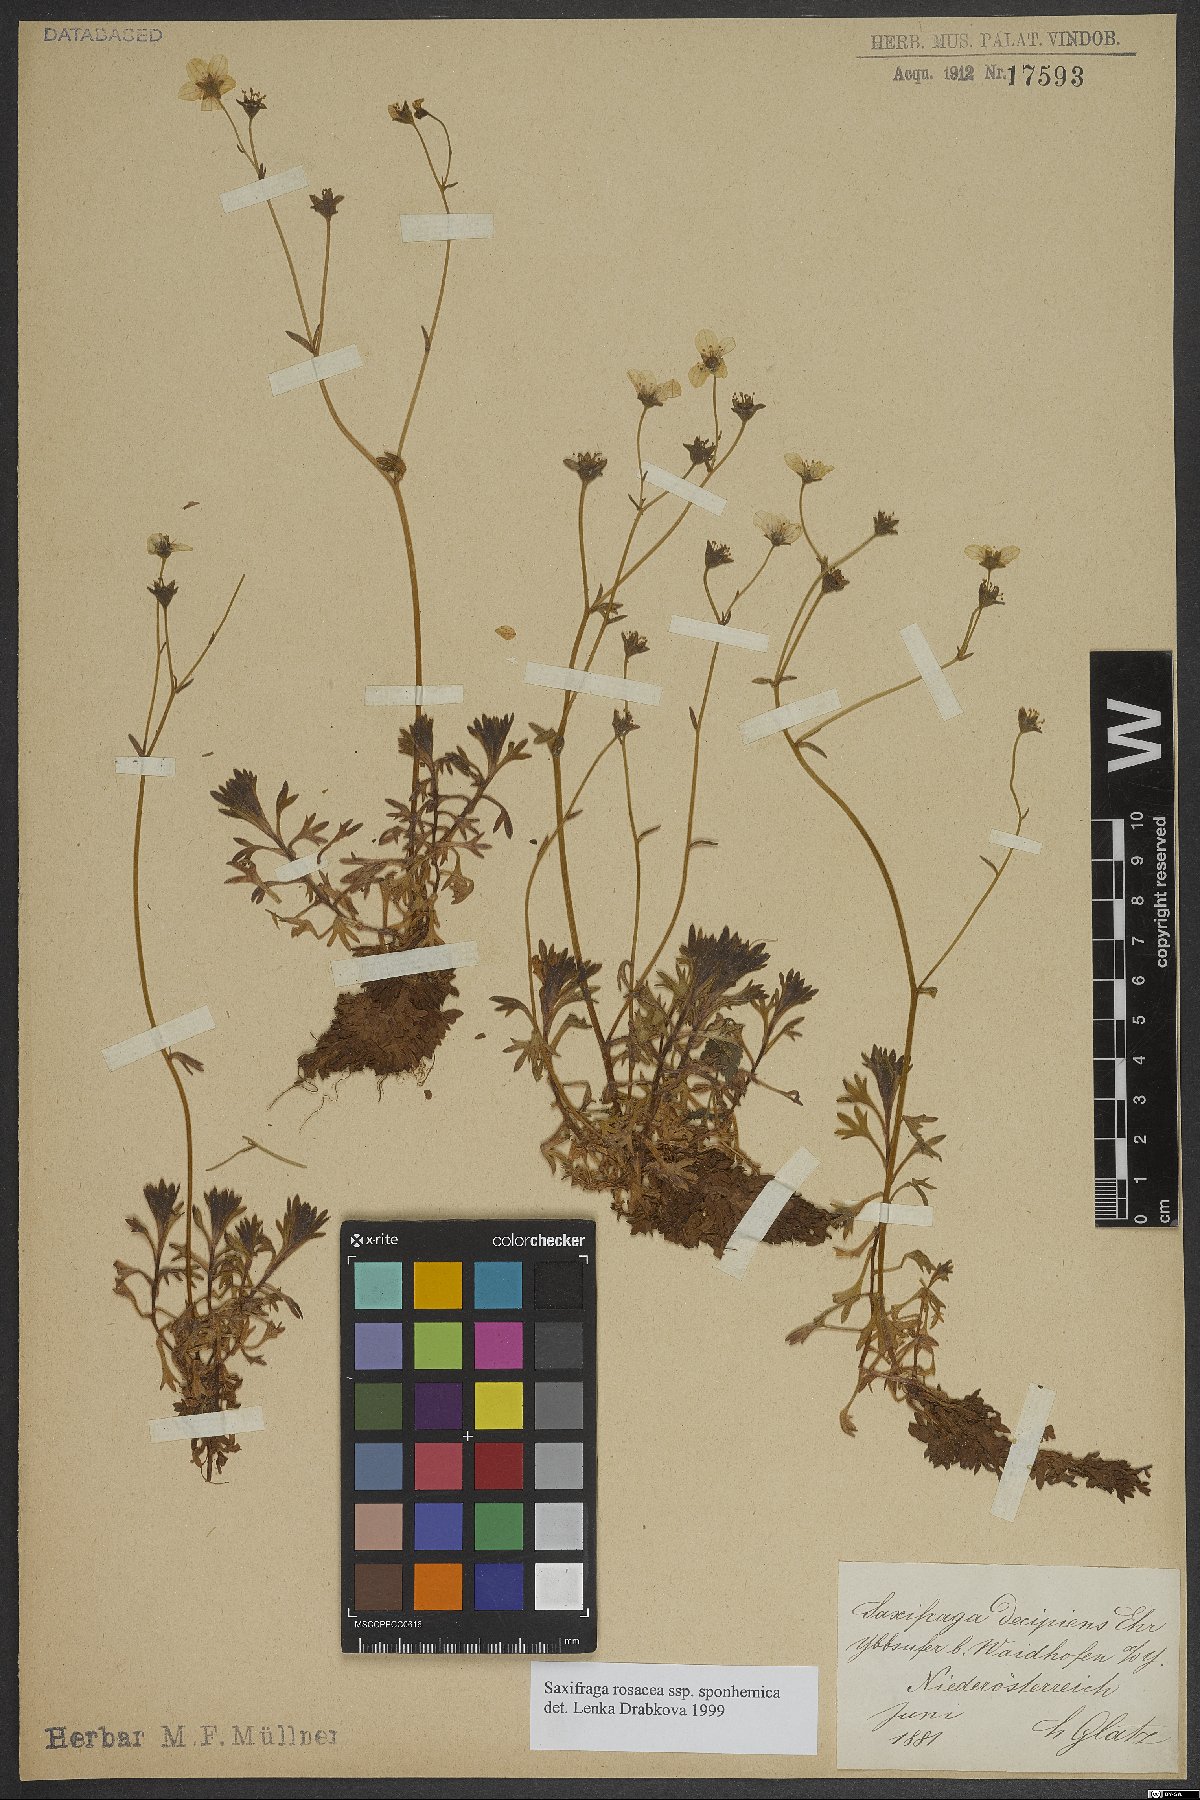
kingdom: Plantae
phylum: Tracheophyta
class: Magnoliopsida
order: Saxifragales
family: Saxifragaceae
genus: Saxifraga
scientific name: Saxifraga rosacea
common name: Irish saxifrage
